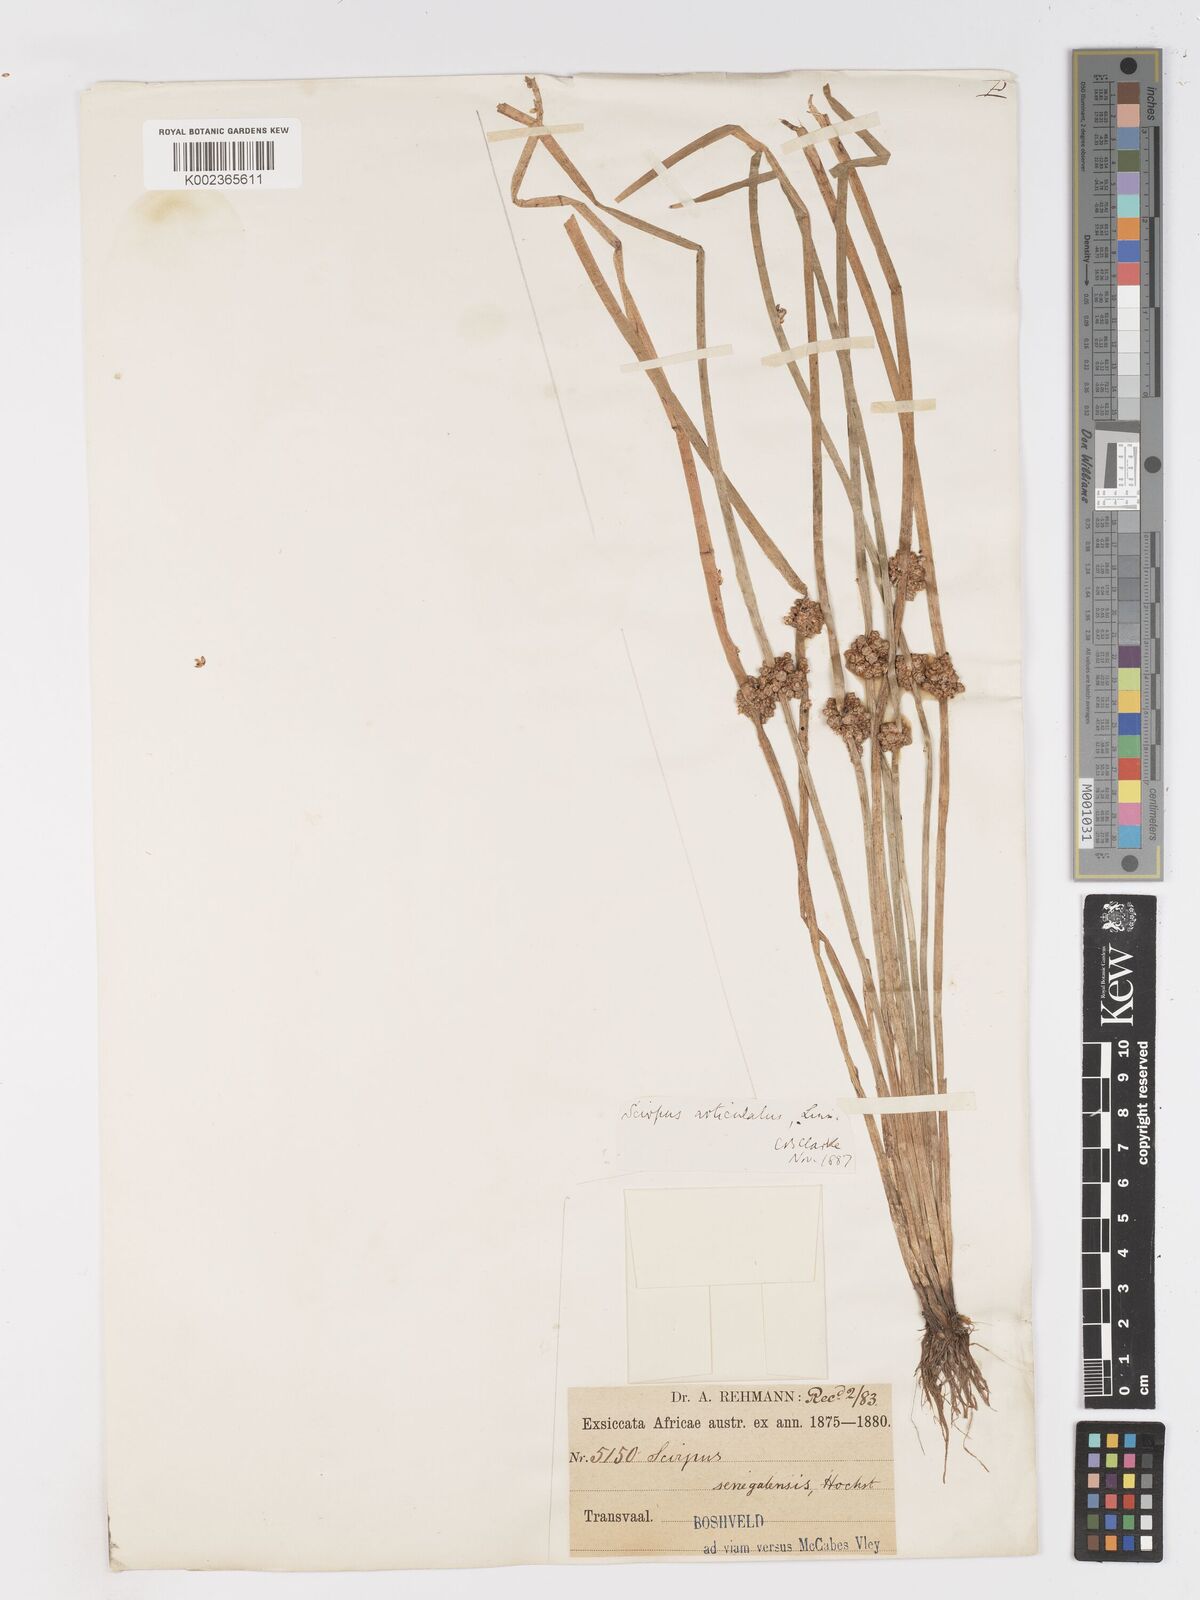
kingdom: Plantae
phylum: Tracheophyta
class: Liliopsida
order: Poales
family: Cyperaceae
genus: Schoenoplectiella
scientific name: Schoenoplectiella praelongata
